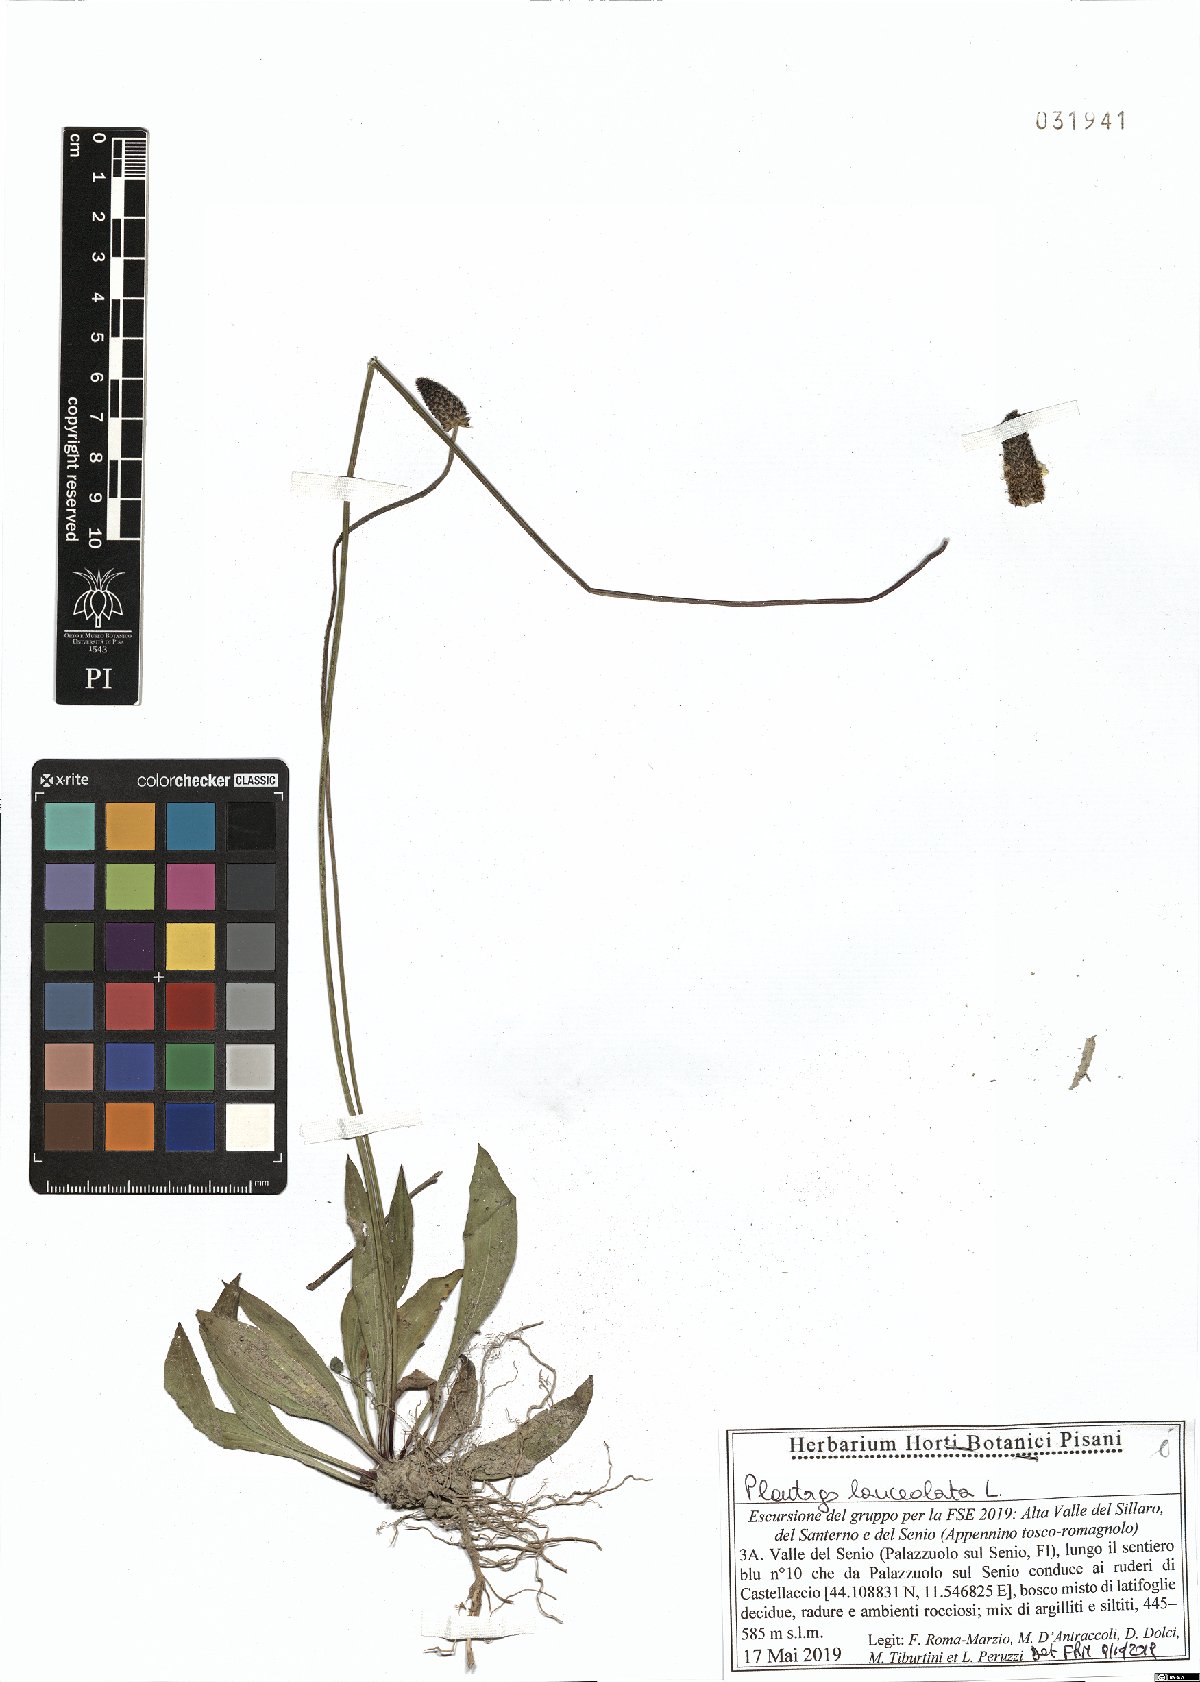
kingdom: Plantae
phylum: Tracheophyta
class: Magnoliopsida
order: Lamiales
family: Plantaginaceae
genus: Plantago
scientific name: Plantago lanceolata
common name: Ribwort plantain
